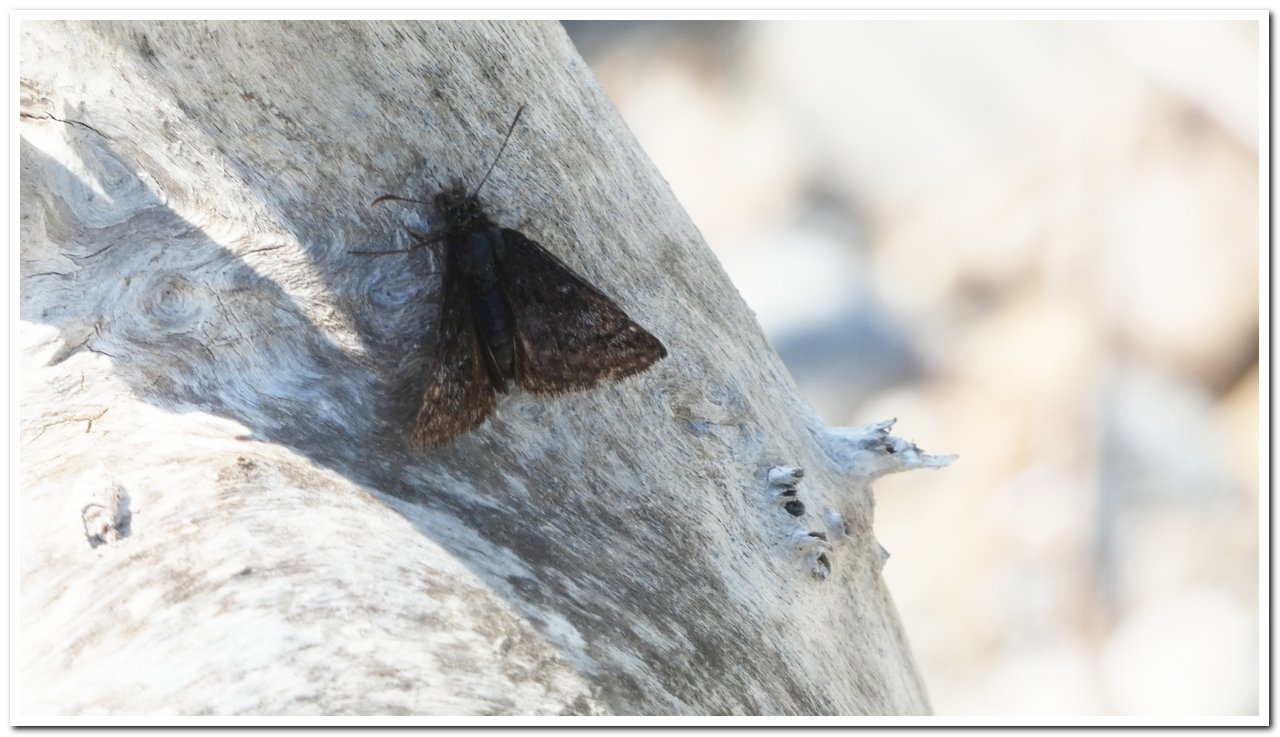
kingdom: Animalia
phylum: Arthropoda
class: Insecta
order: Lepidoptera
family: Hesperiidae
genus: Erynnis
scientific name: Erynnis icelus
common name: Dreamy Duskywing
